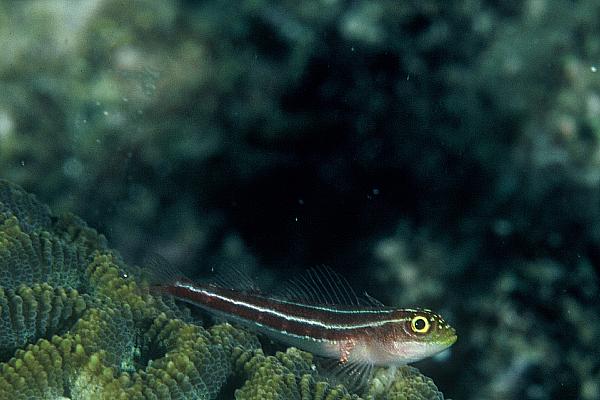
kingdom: Animalia
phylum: Chordata
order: Perciformes
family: Tripterygiidae
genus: Helcogramma
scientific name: Helcogramma striata
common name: Striped threefin
